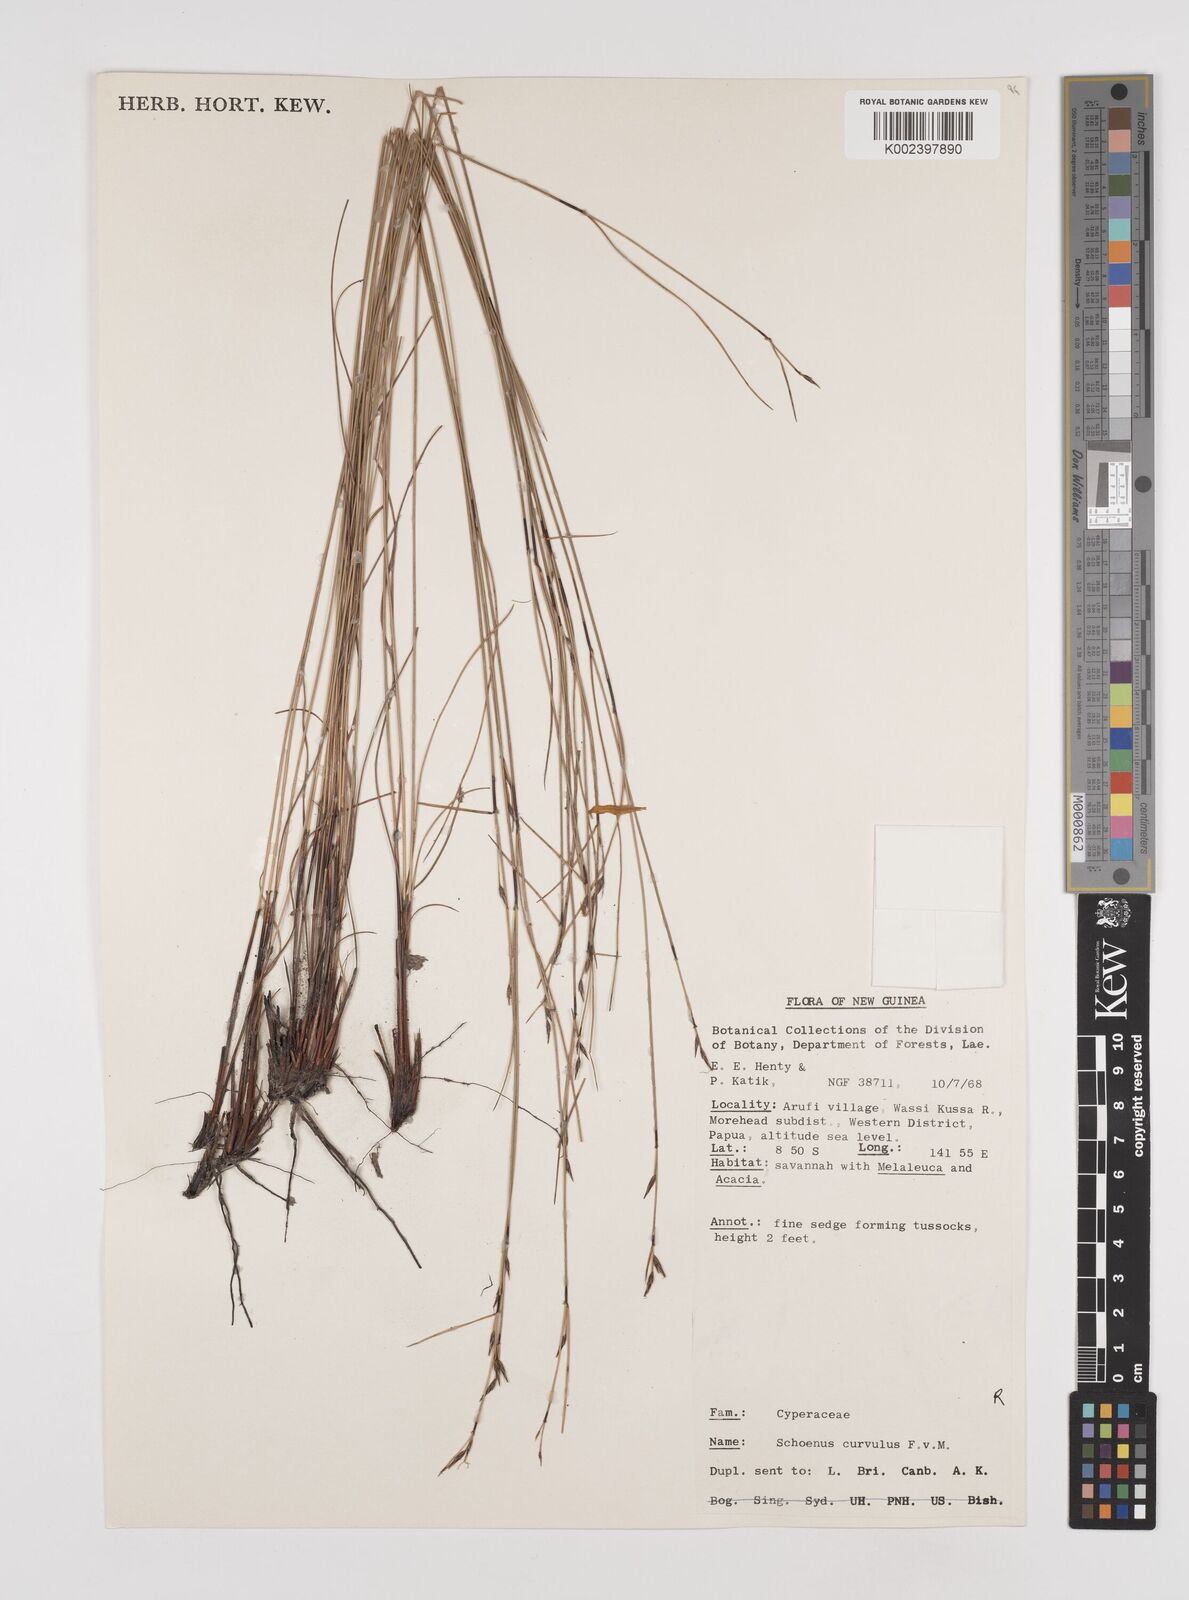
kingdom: Plantae
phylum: Tracheophyta
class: Liliopsida
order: Poales
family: Cyperaceae
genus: Schoenus
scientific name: Schoenus curvulus
